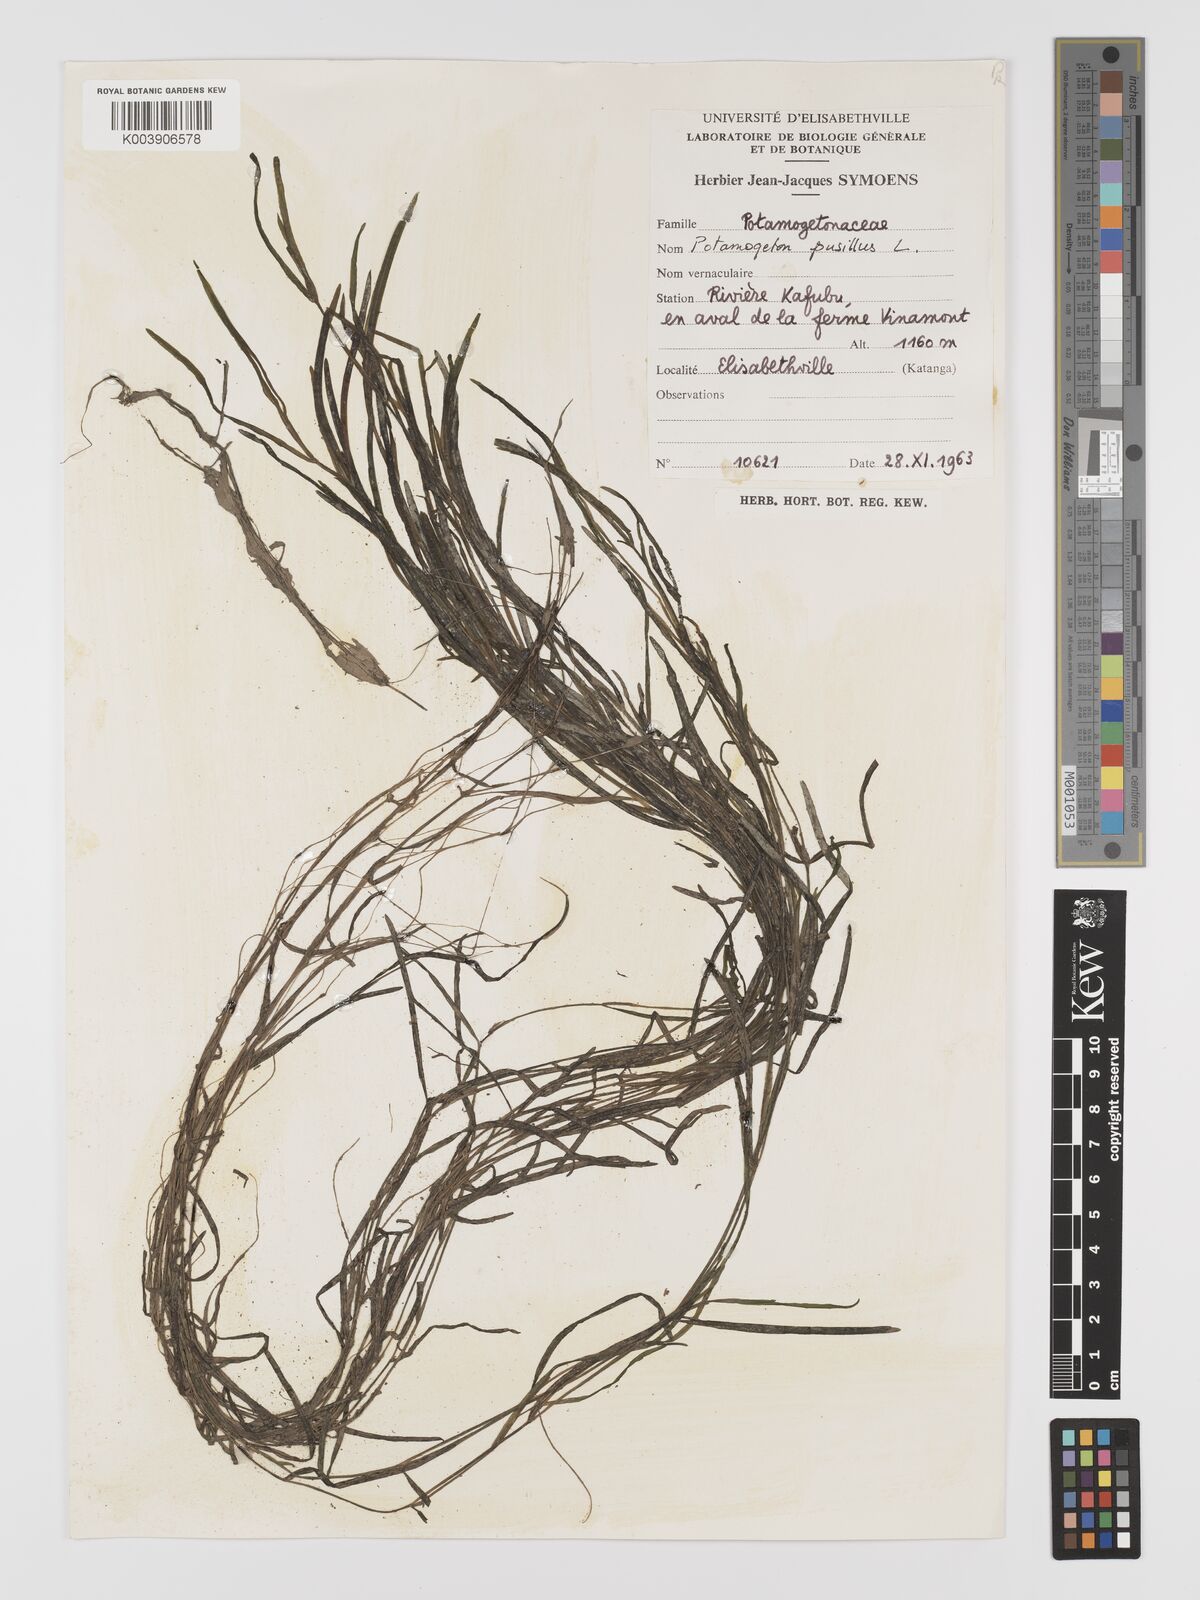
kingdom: Plantae
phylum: Tracheophyta
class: Liliopsida
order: Alismatales
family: Potamogetonaceae
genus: Potamogeton
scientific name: Potamogeton pusillus
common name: Lesser pondweed
